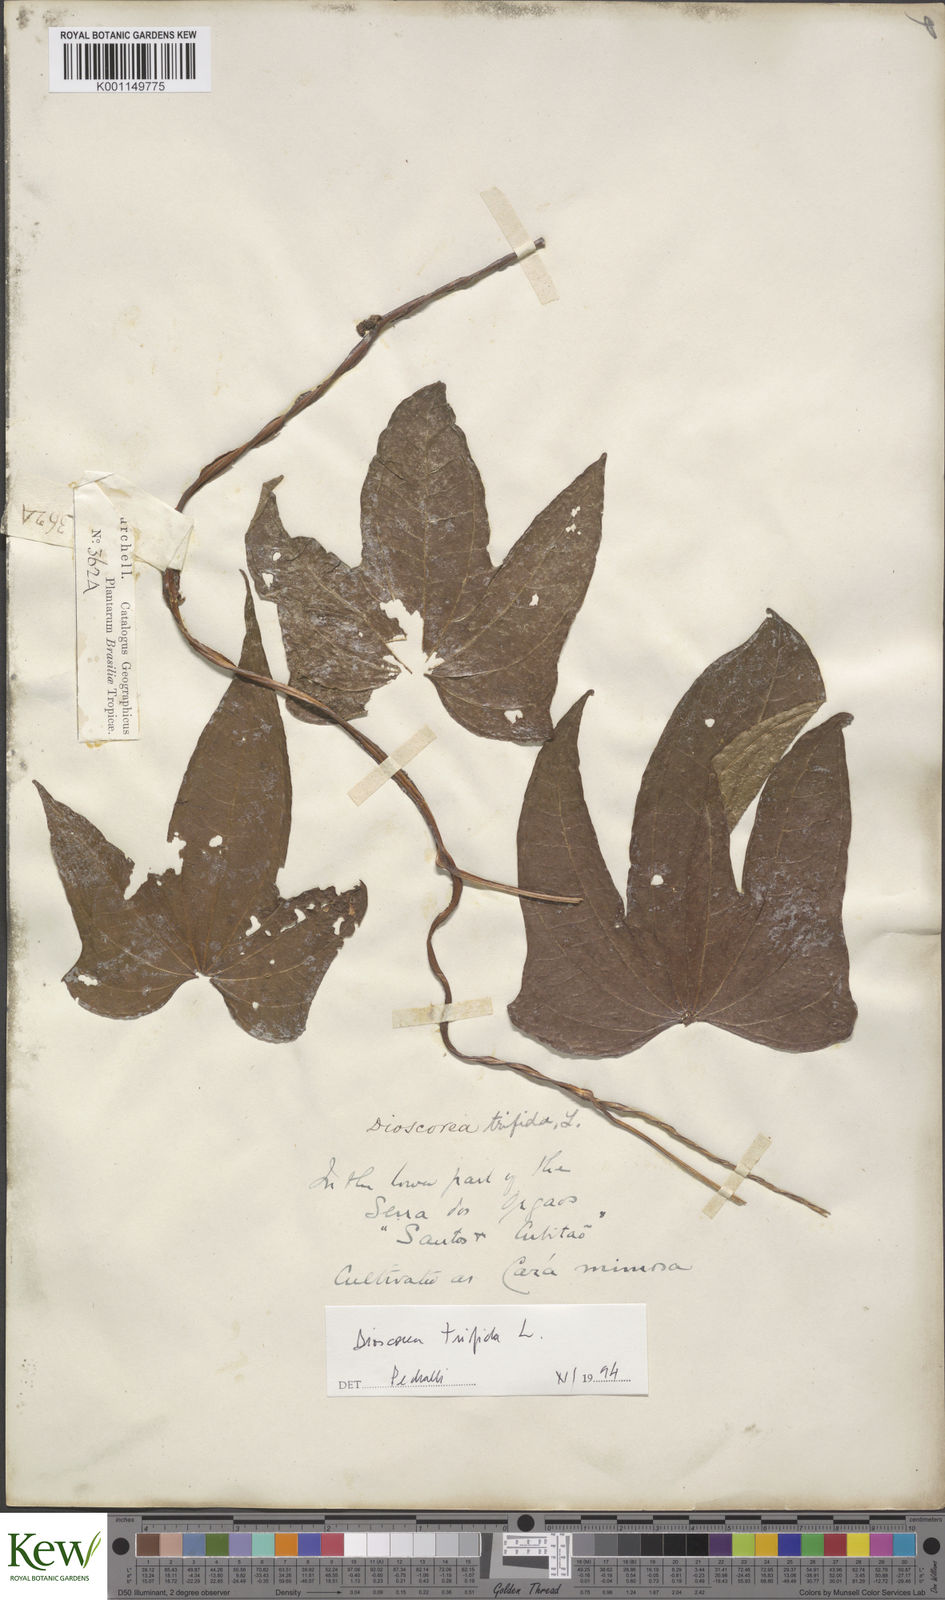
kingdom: Plantae
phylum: Tracheophyta
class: Liliopsida
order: Dioscoreales
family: Dioscoreaceae
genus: Dioscorea
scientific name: Dioscorea trifida
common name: Cush-cush
